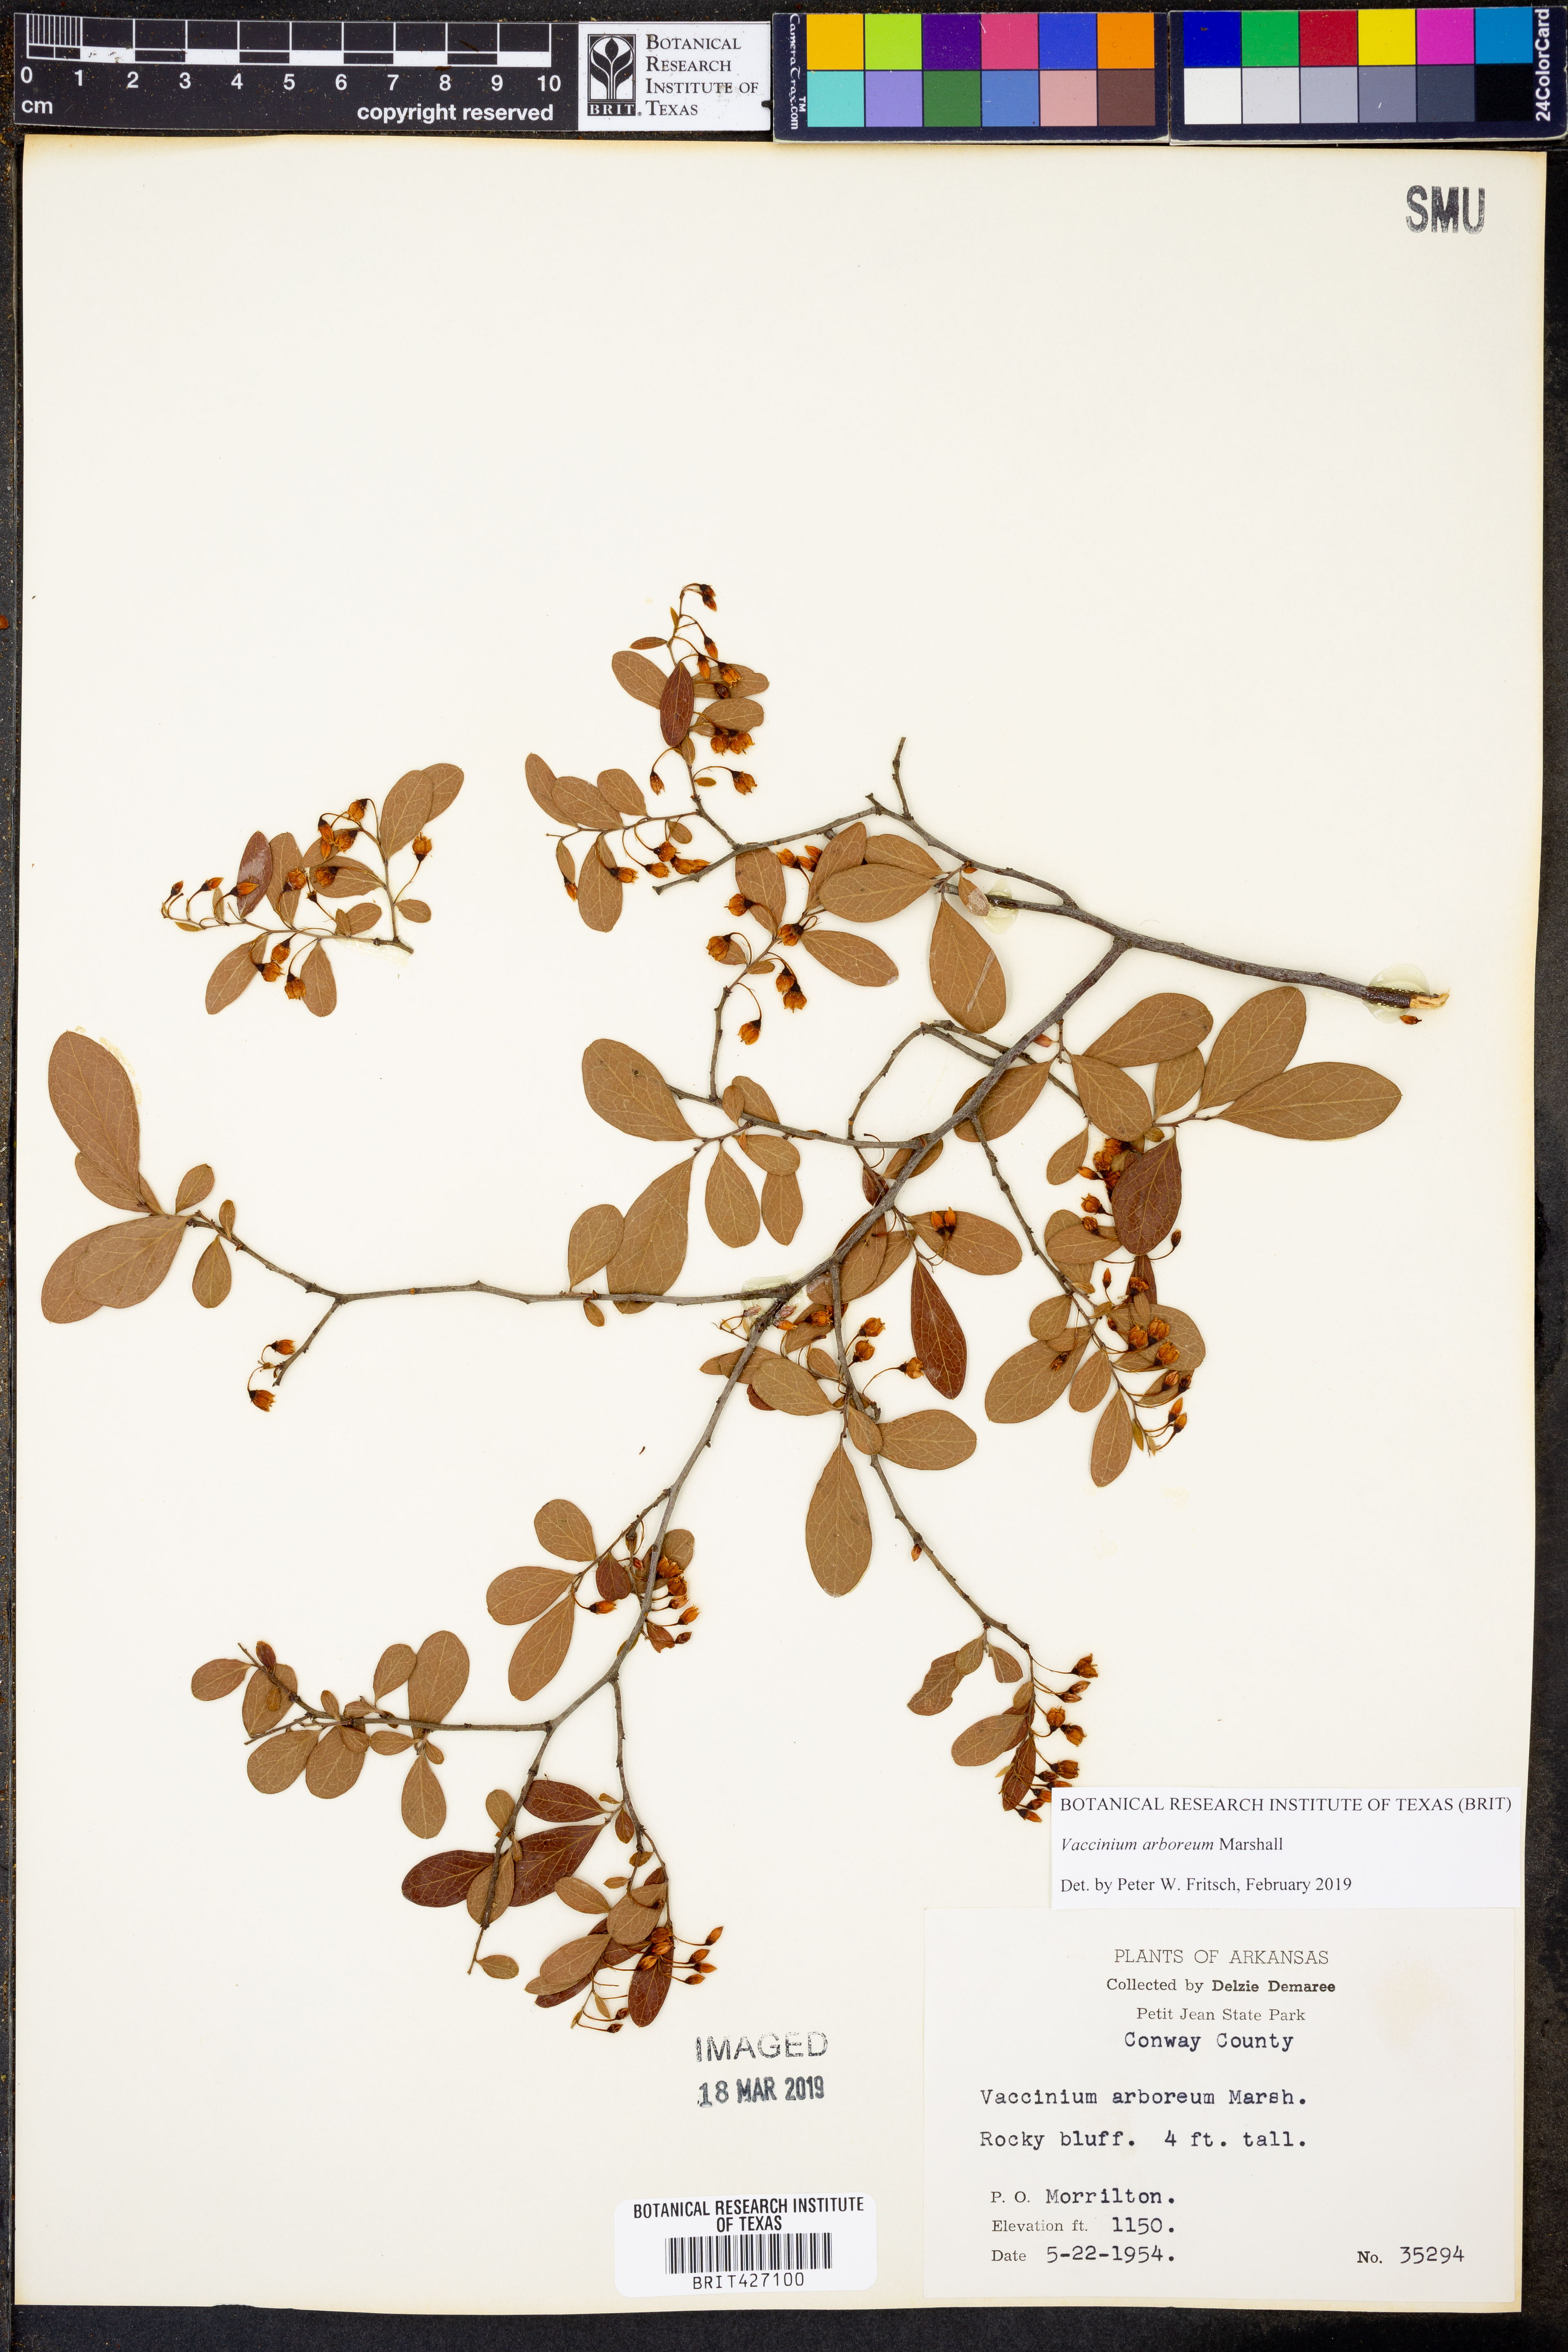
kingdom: Plantae
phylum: Tracheophyta
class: Magnoliopsida
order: Ericales
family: Ericaceae
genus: Vaccinium
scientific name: Vaccinium arboreum
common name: Farkleberry
